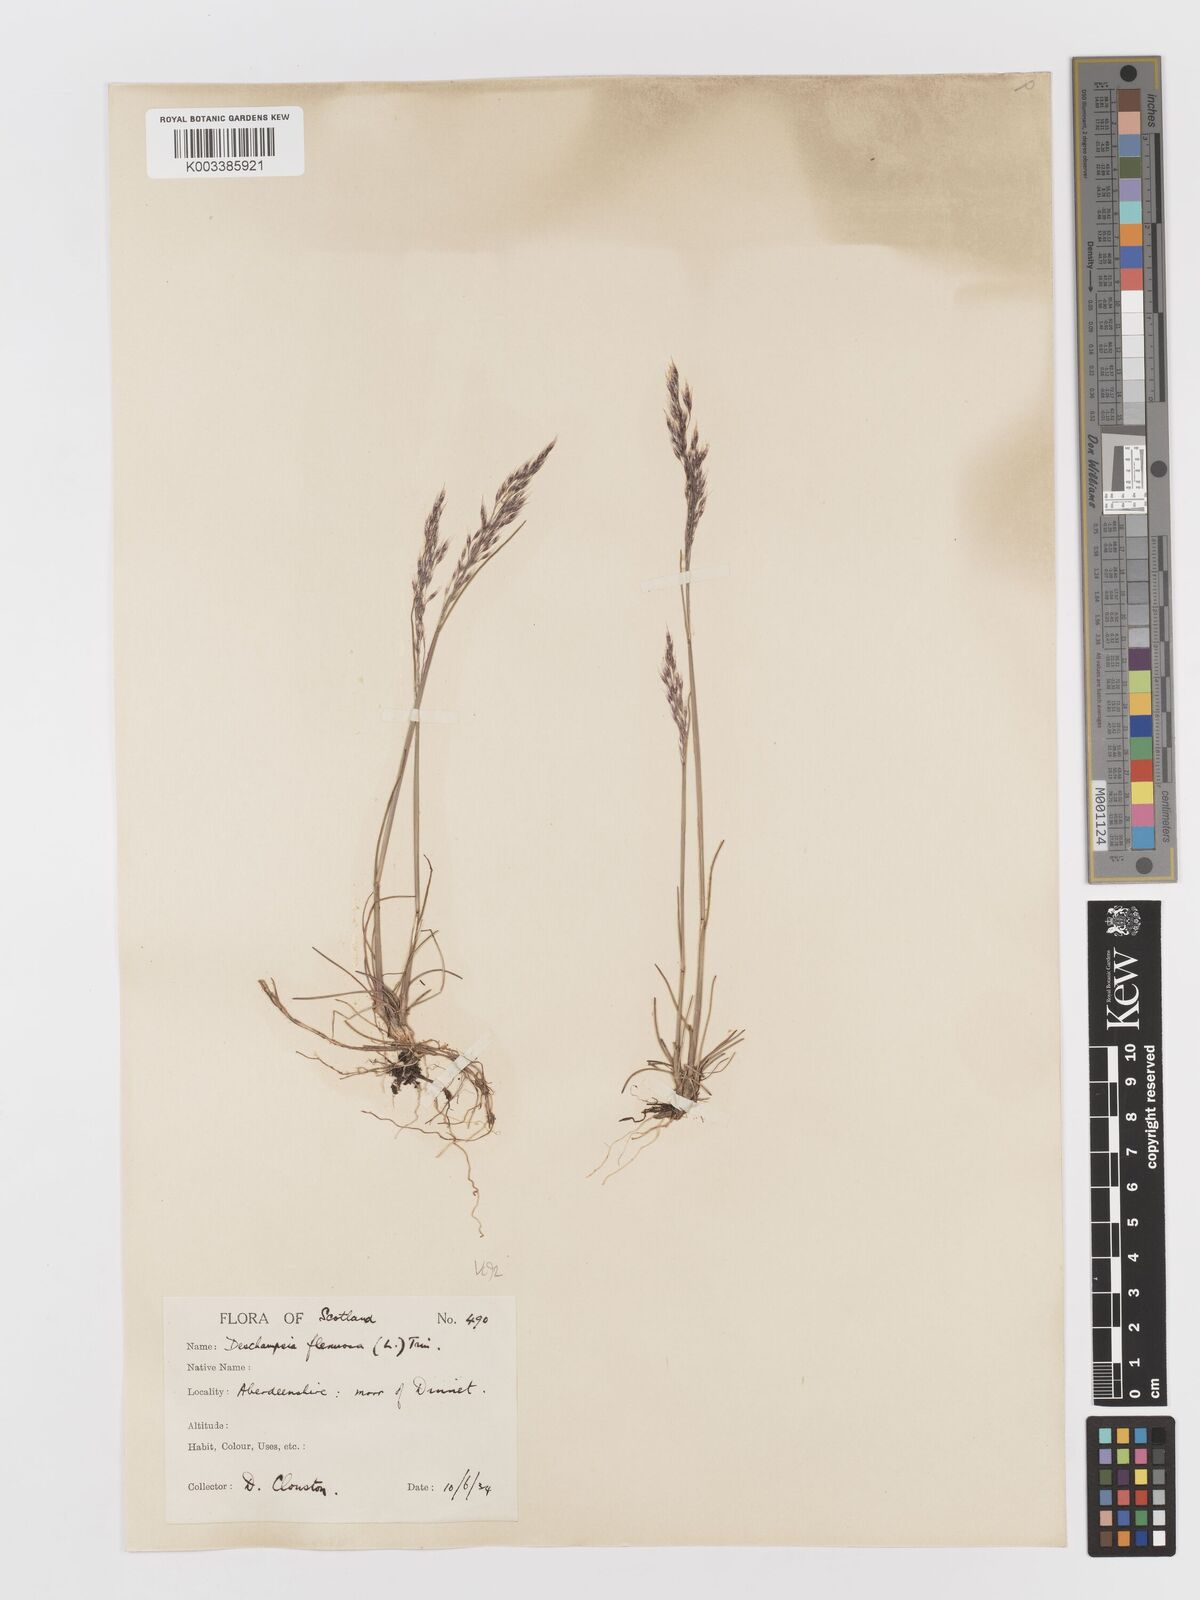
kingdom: Plantae
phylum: Tracheophyta
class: Liliopsida
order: Poales
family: Poaceae
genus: Avenella
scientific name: Avenella flexuosa
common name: Wavy hairgrass
